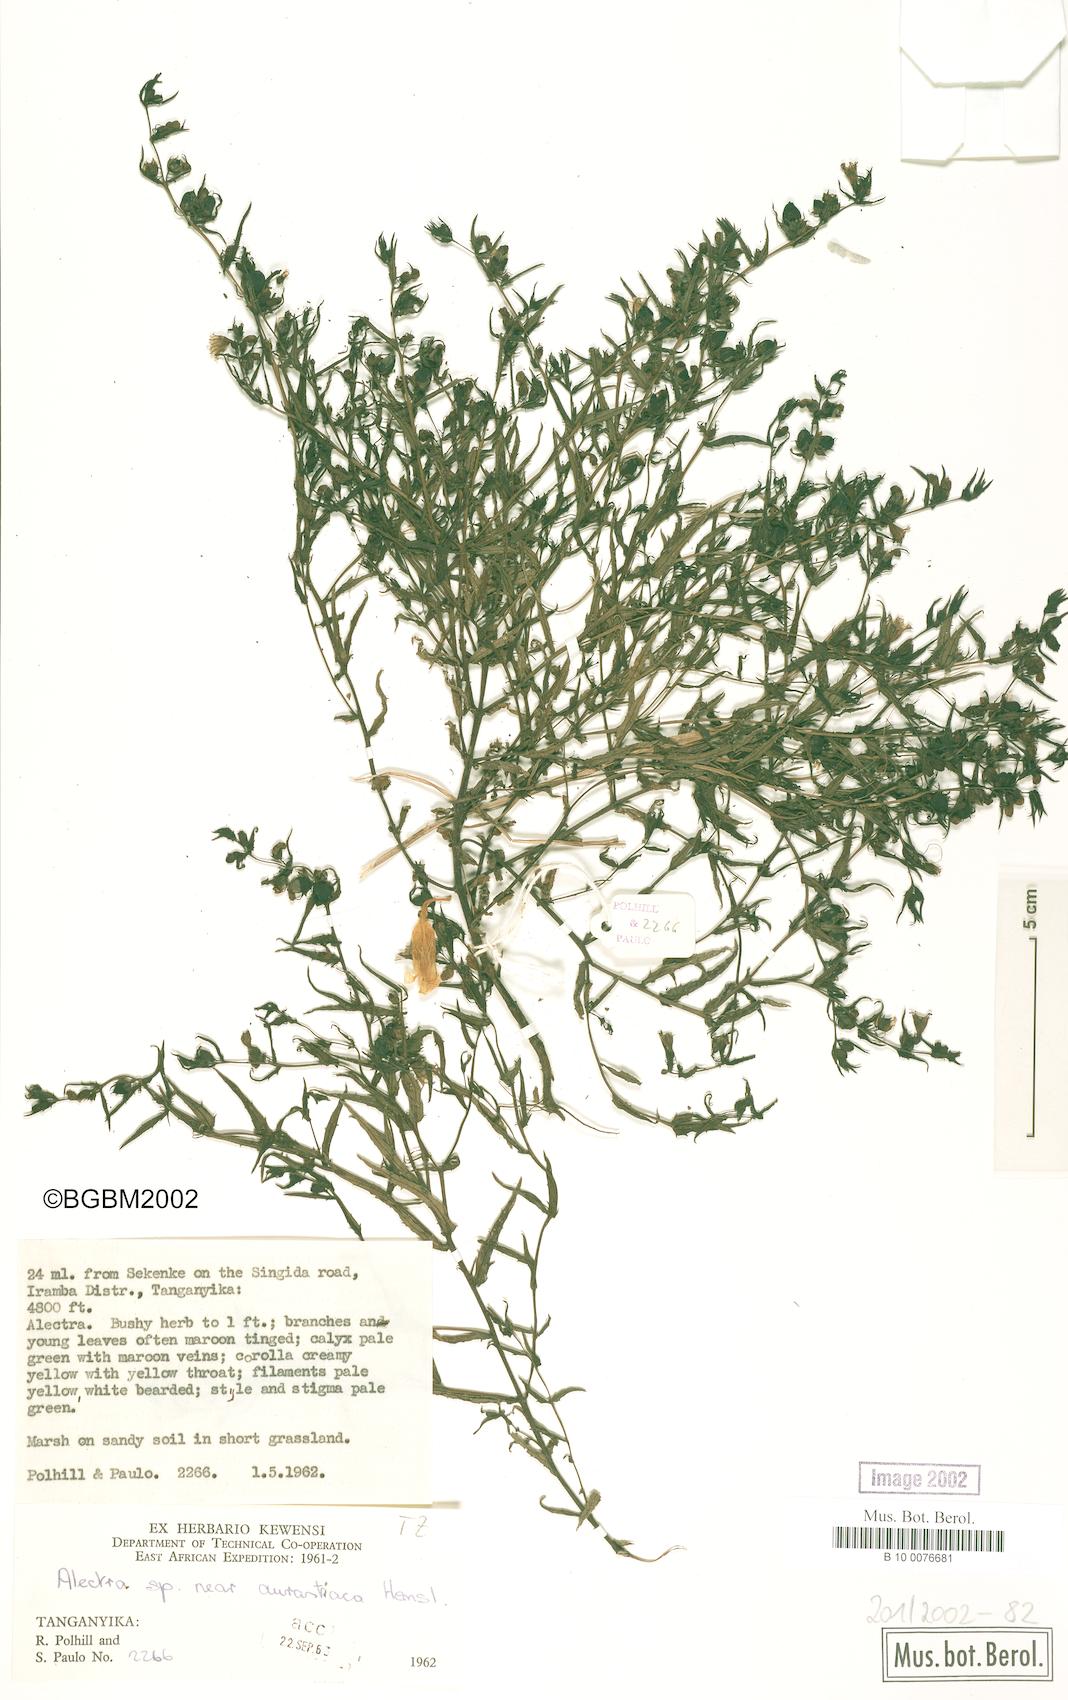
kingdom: Plantae
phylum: Tracheophyta
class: Magnoliopsida
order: Lamiales
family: Orobanchaceae
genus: Alectra
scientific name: Alectra aurantiaca
